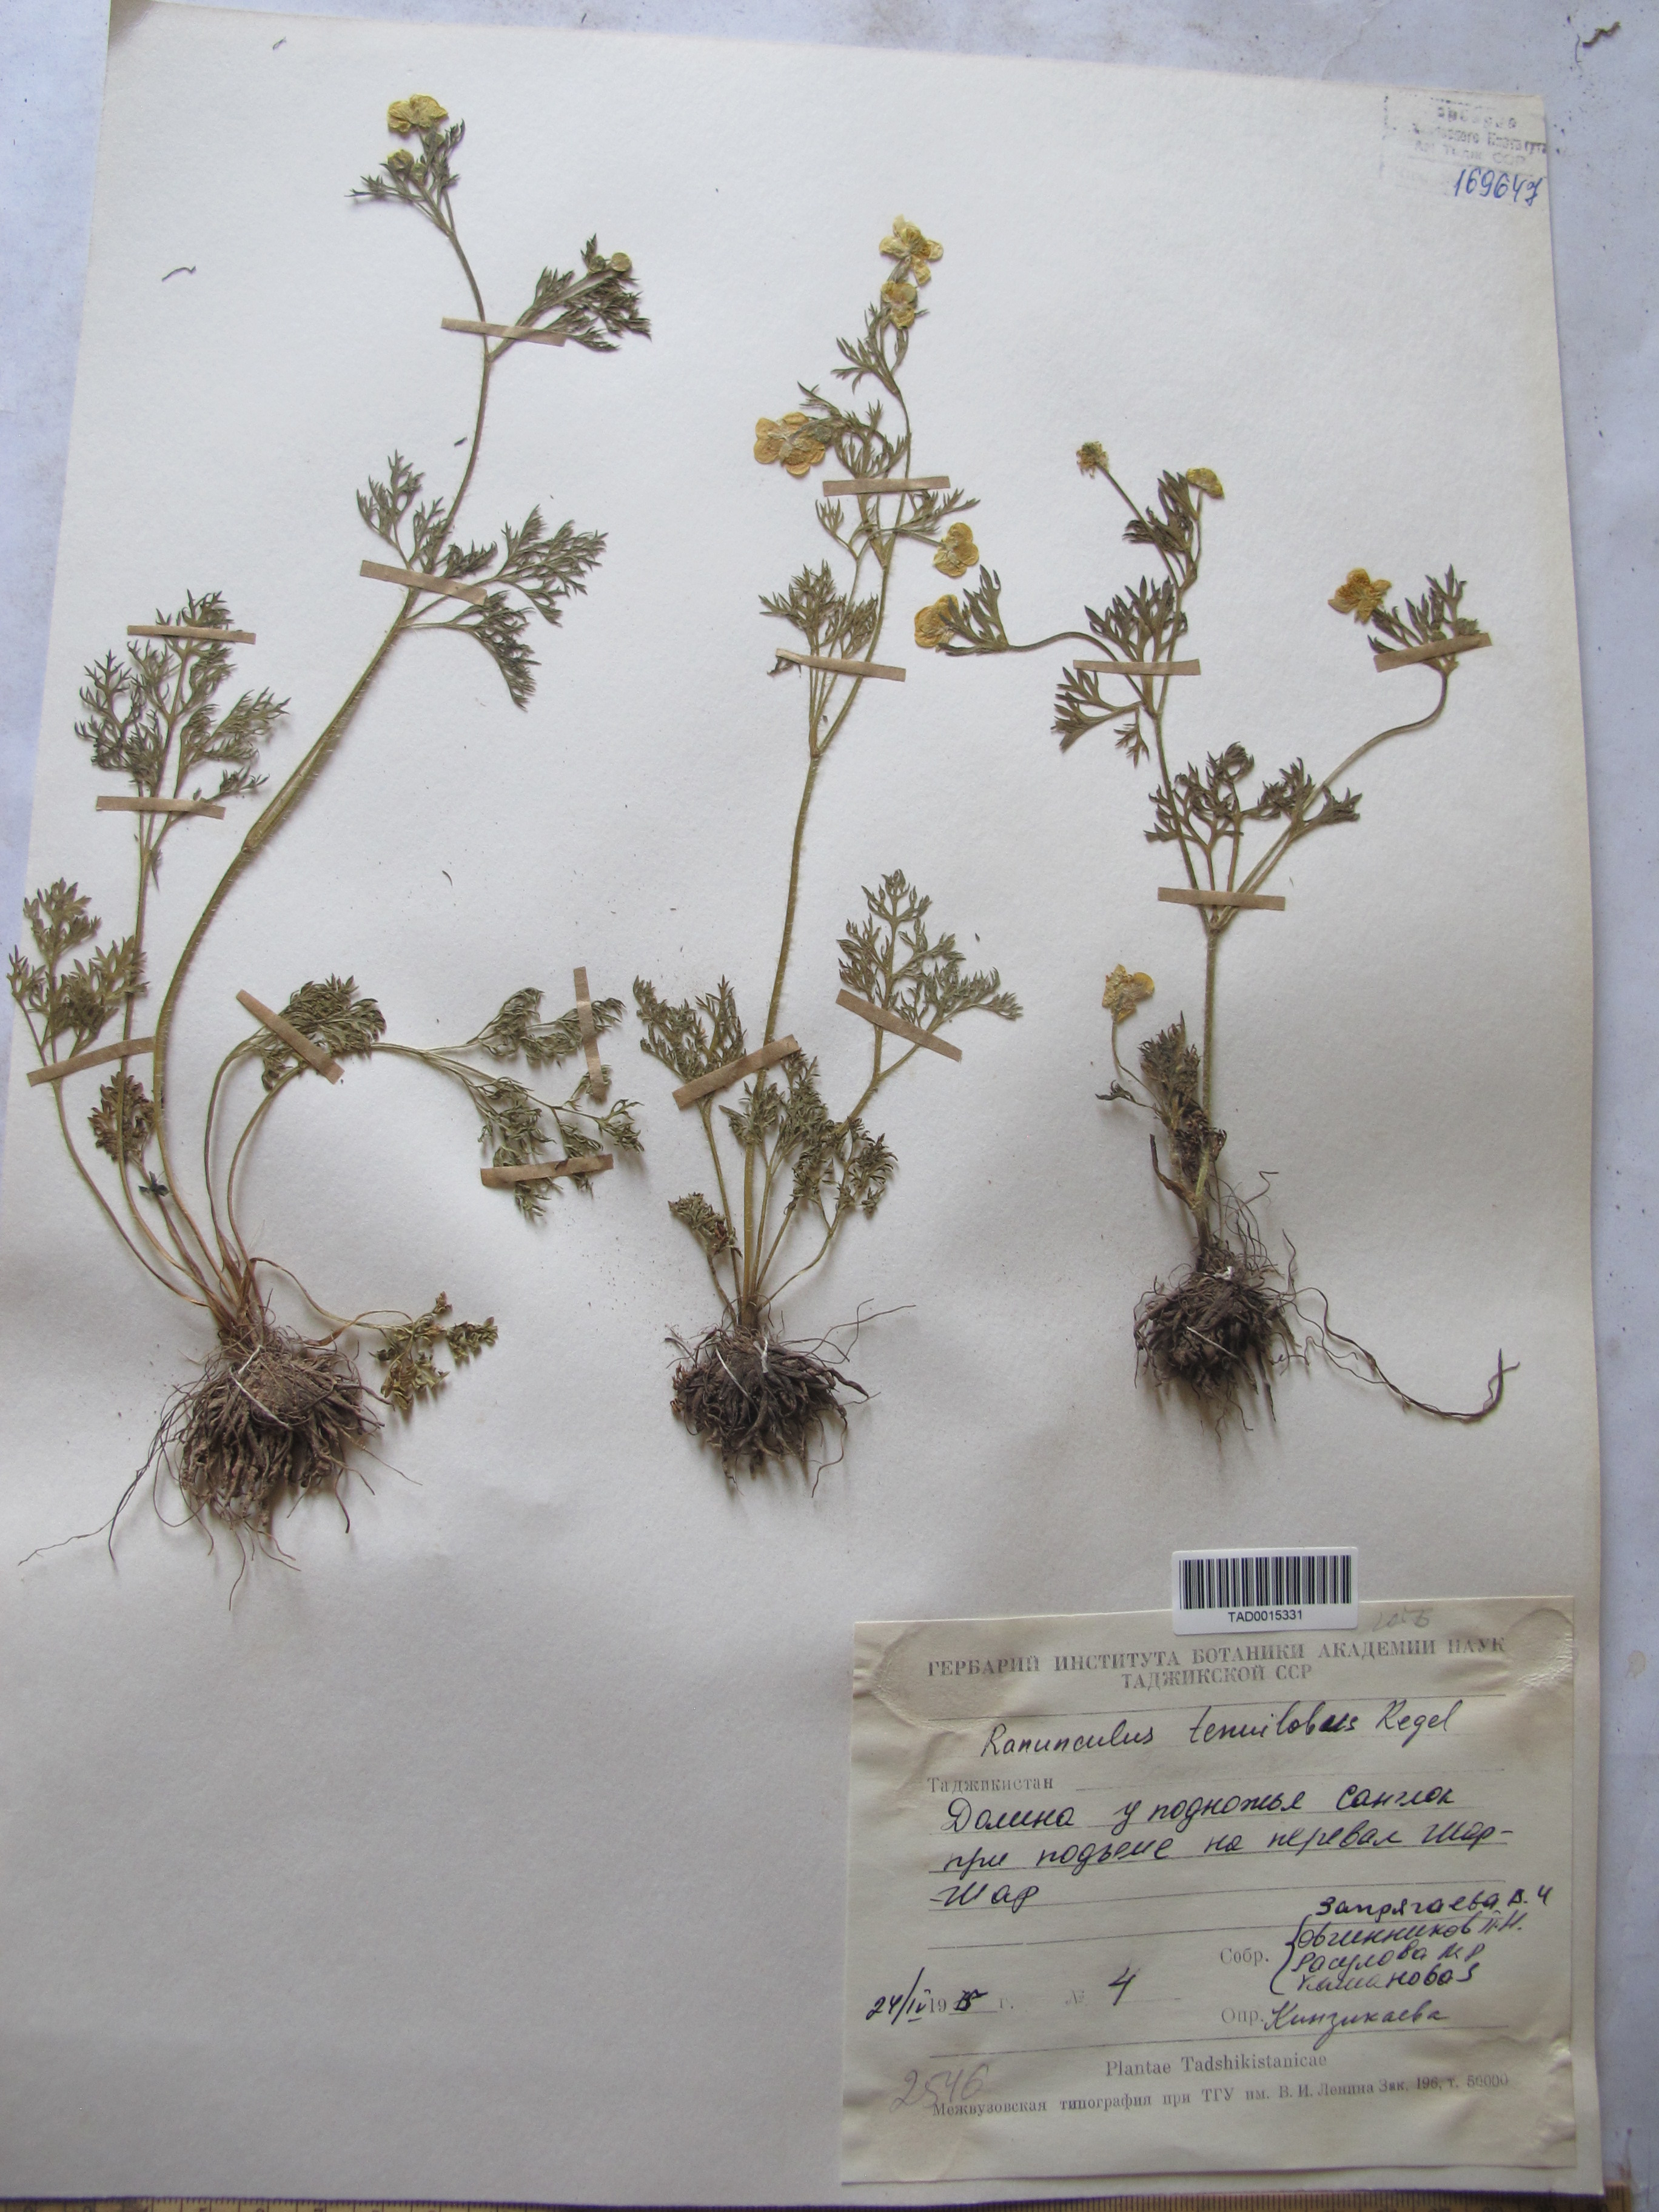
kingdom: Plantae
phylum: Tracheophyta
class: Magnoliopsida
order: Ranunculales
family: Ranunculaceae
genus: Ranunculus
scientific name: Ranunculus tenuilobus
